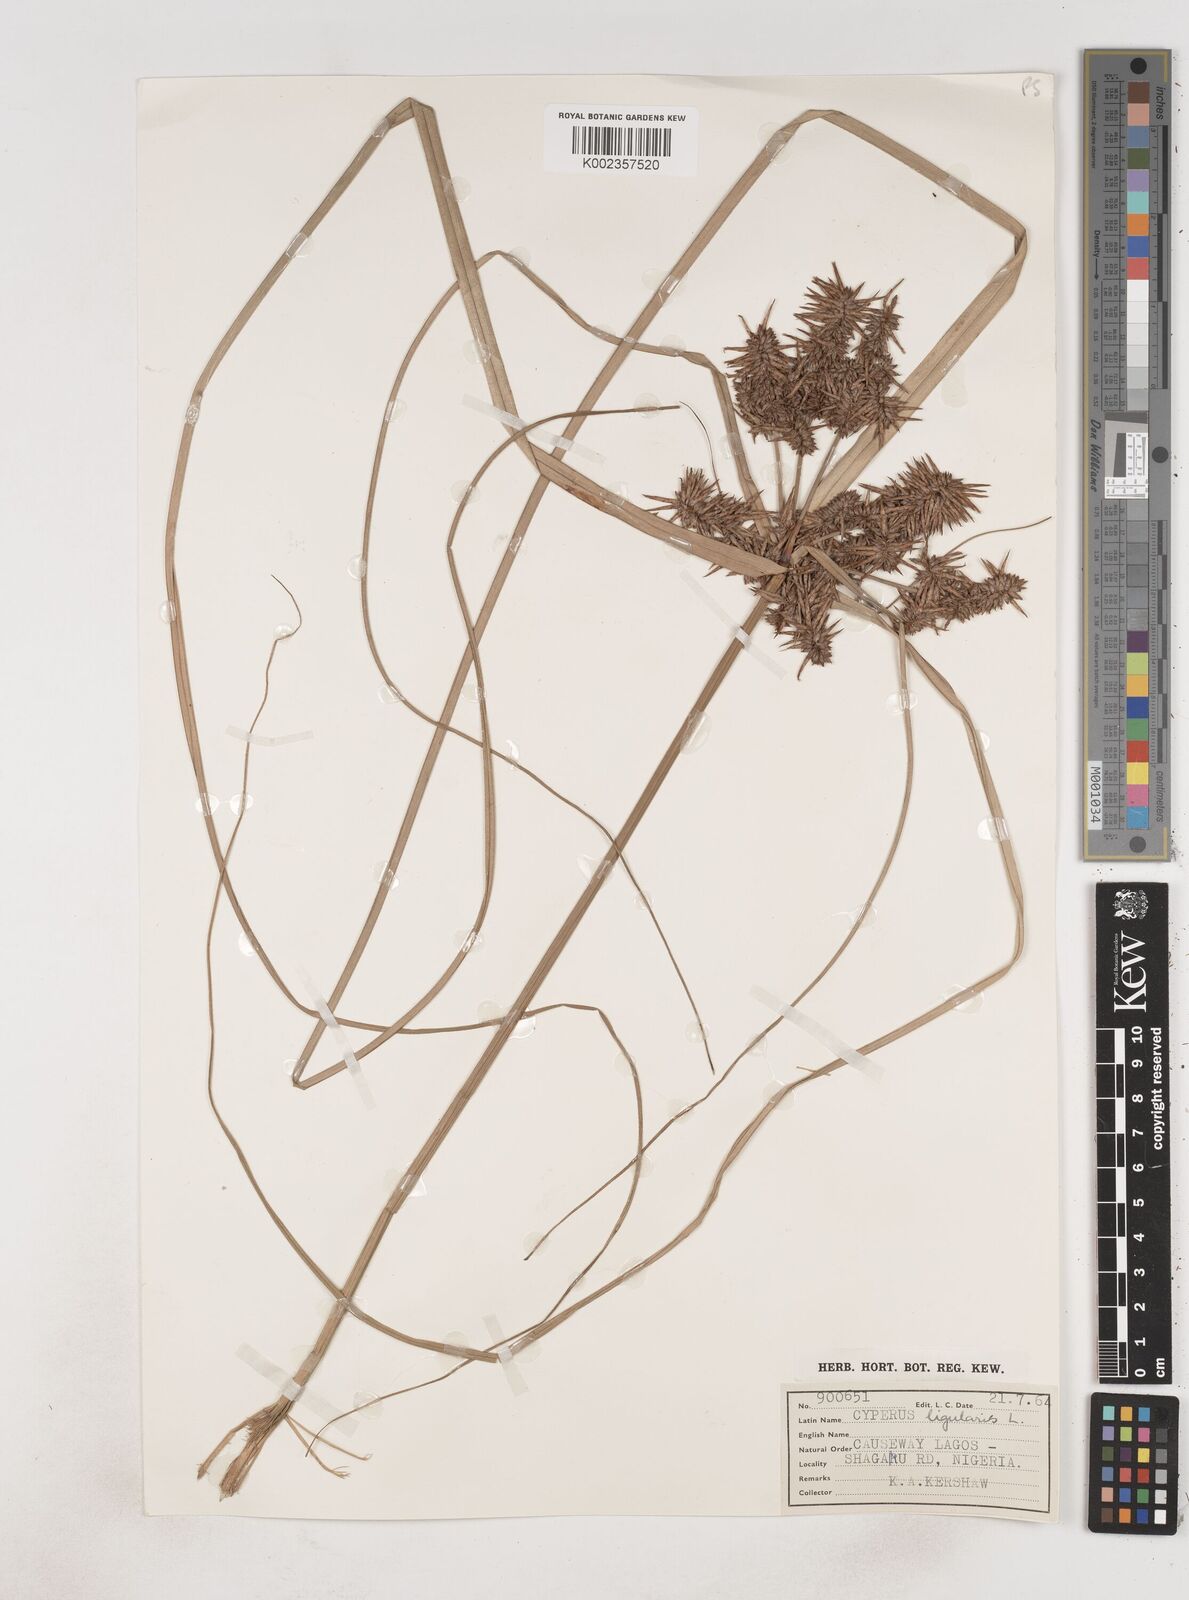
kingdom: Plantae
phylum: Tracheophyta
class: Liliopsida
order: Poales
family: Cyperaceae
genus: Cyperus
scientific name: Cyperus ligularis
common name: Swamp flat sedge
